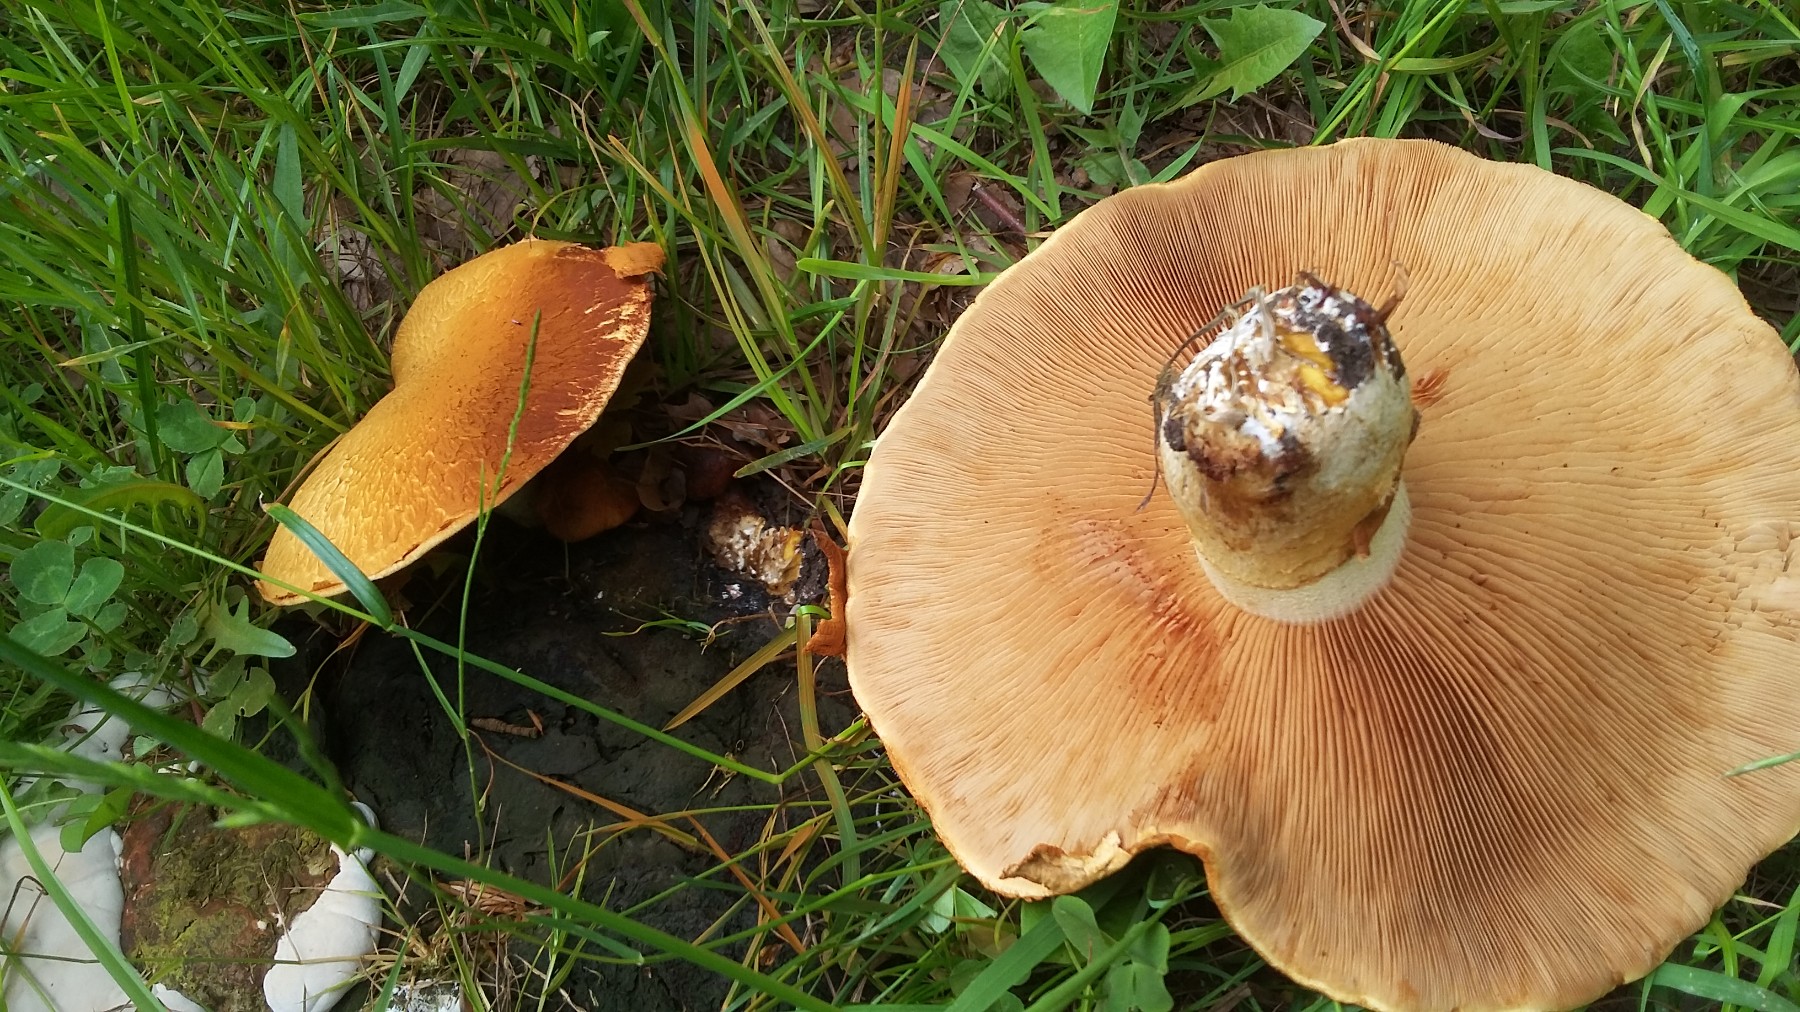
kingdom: Fungi
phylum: Basidiomycota
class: Agaricomycetes
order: Agaricales
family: Hymenogastraceae
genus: Gymnopilus
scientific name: Gymnopilus spectabilis
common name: fibret flammehat
